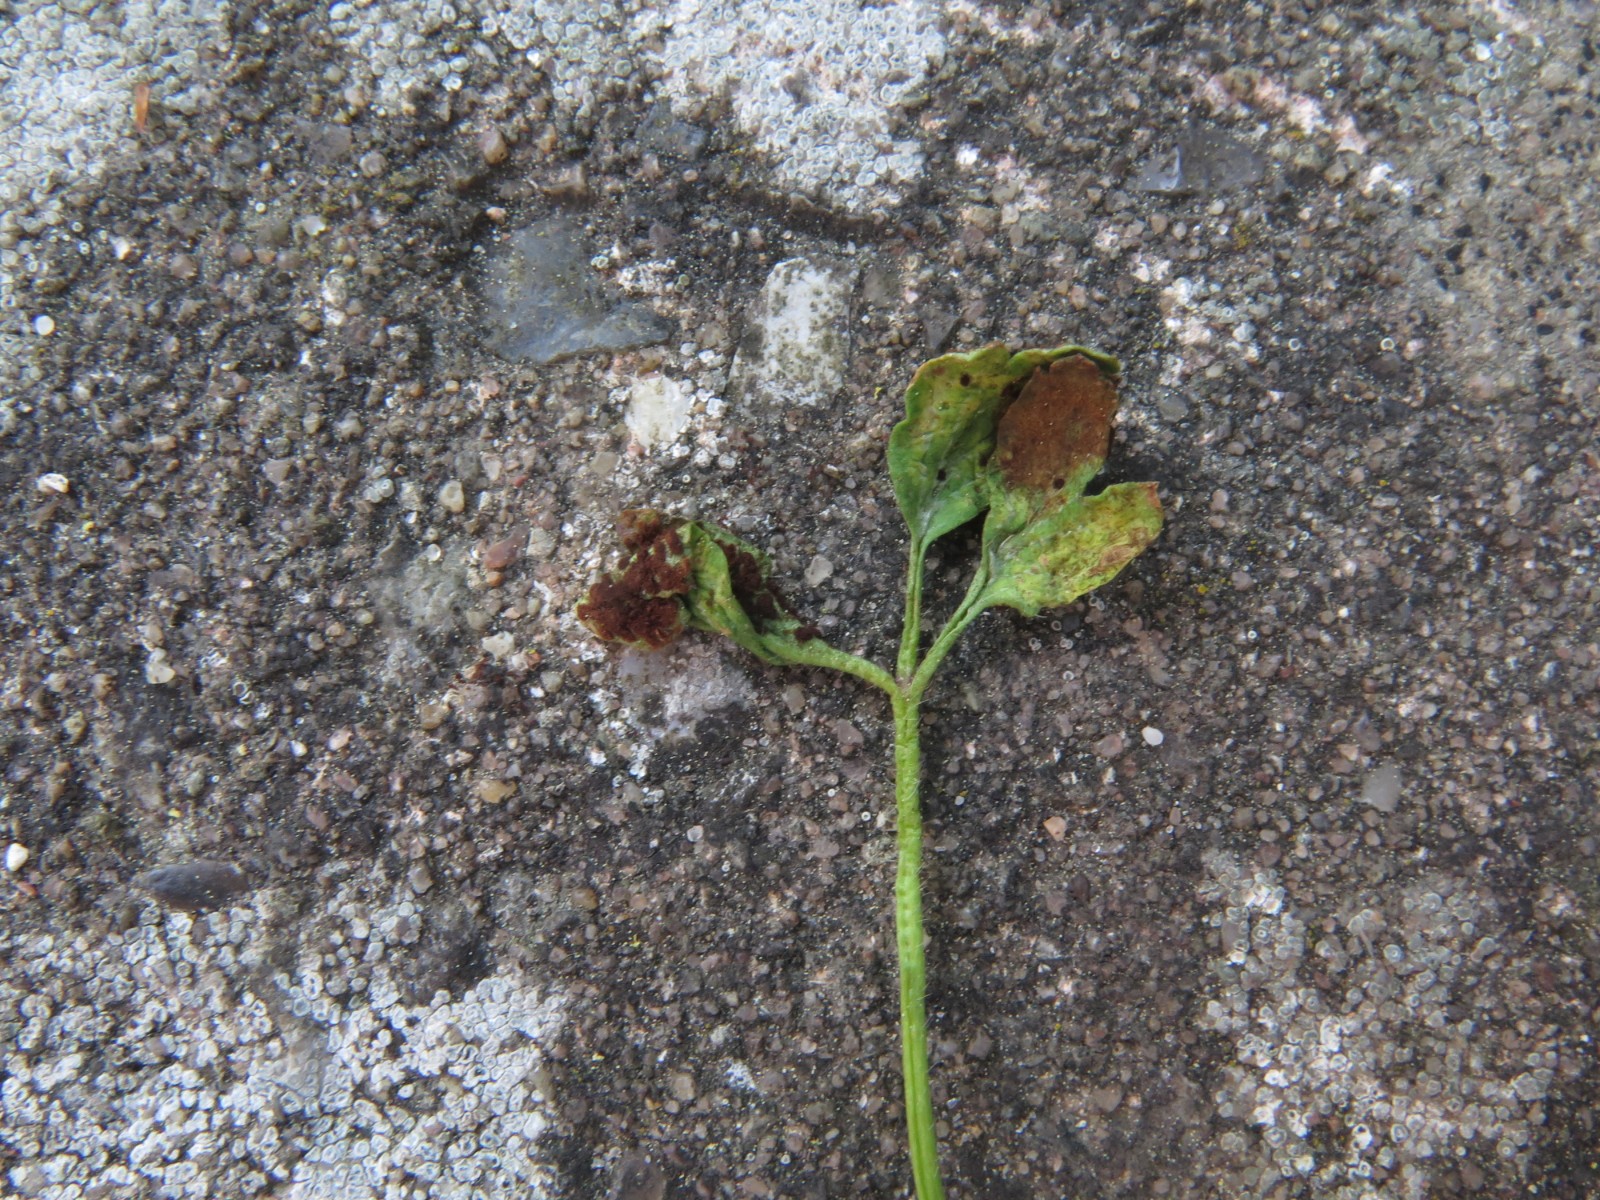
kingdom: Fungi
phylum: Basidiomycota
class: Pucciniomycetes
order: Pucciniales
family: Tranzscheliaceae
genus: Tranzschelia
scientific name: Tranzschelia anemones
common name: anemone-knæksporerust
